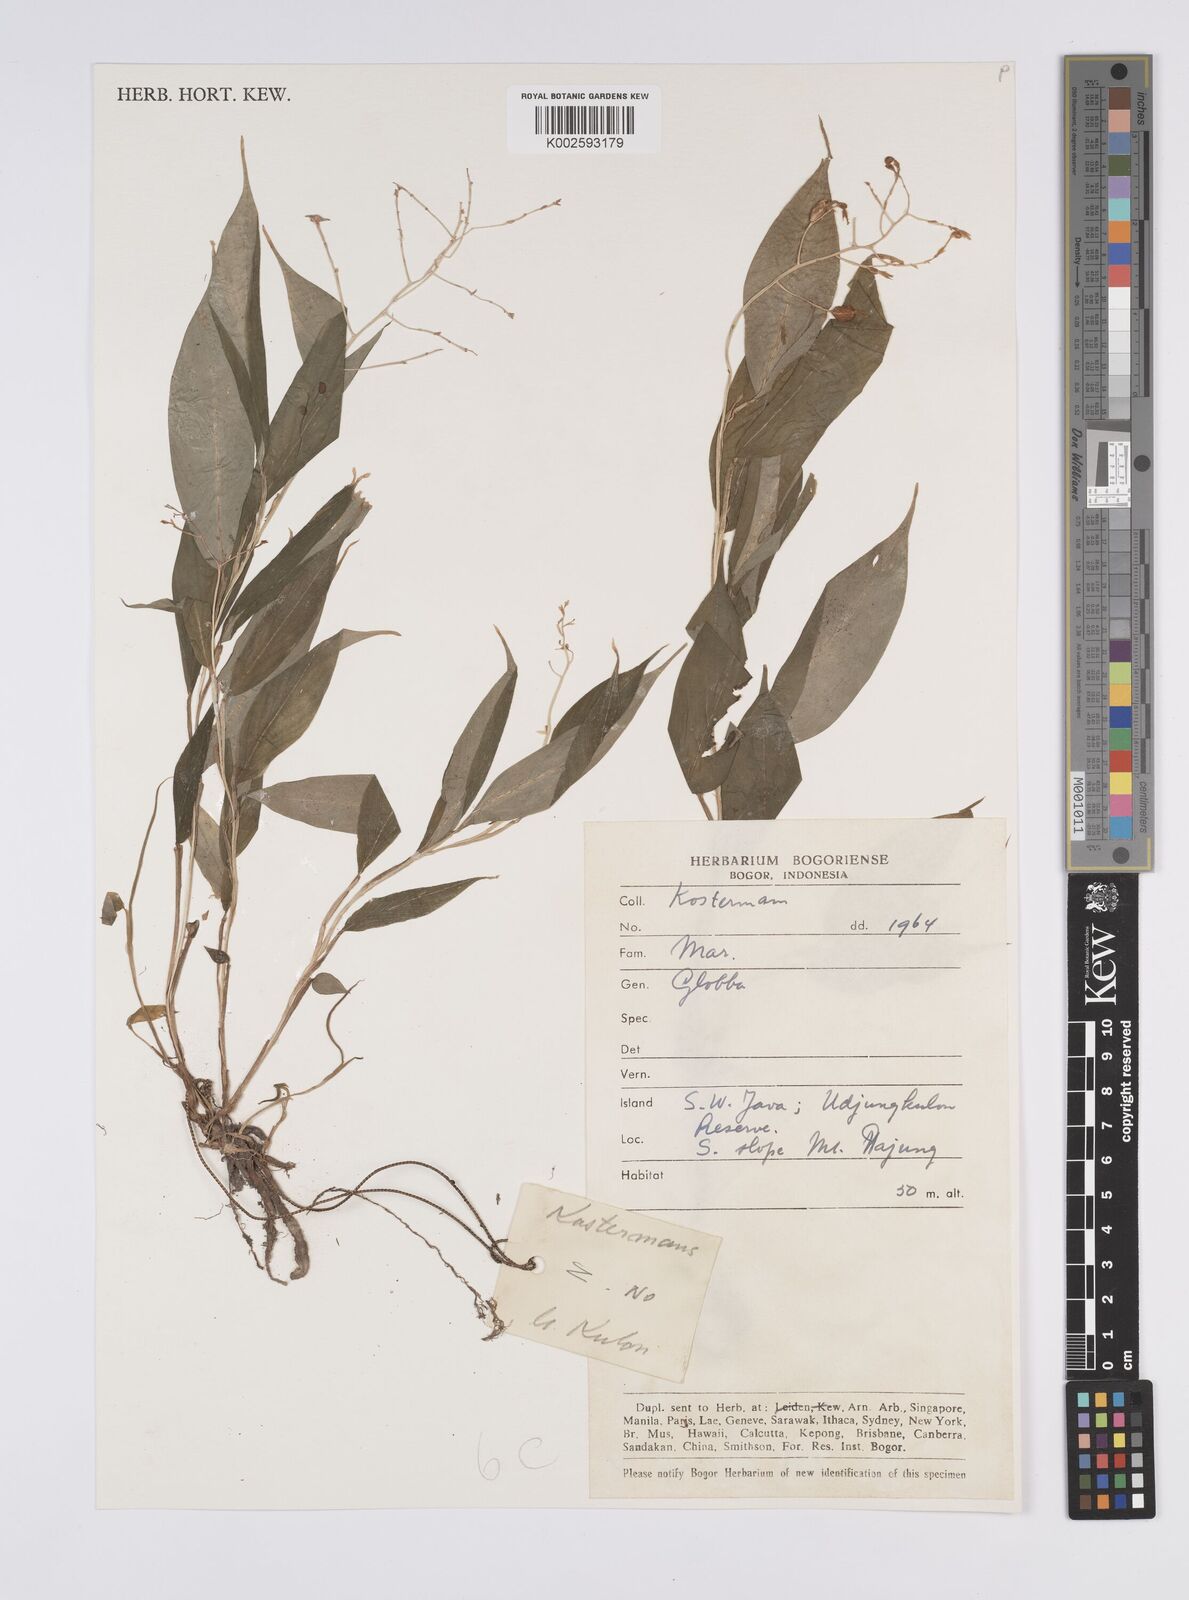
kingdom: Plantae
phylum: Tracheophyta
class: Liliopsida
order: Zingiberales
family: Zingiberaceae
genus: Globba
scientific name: Globba
